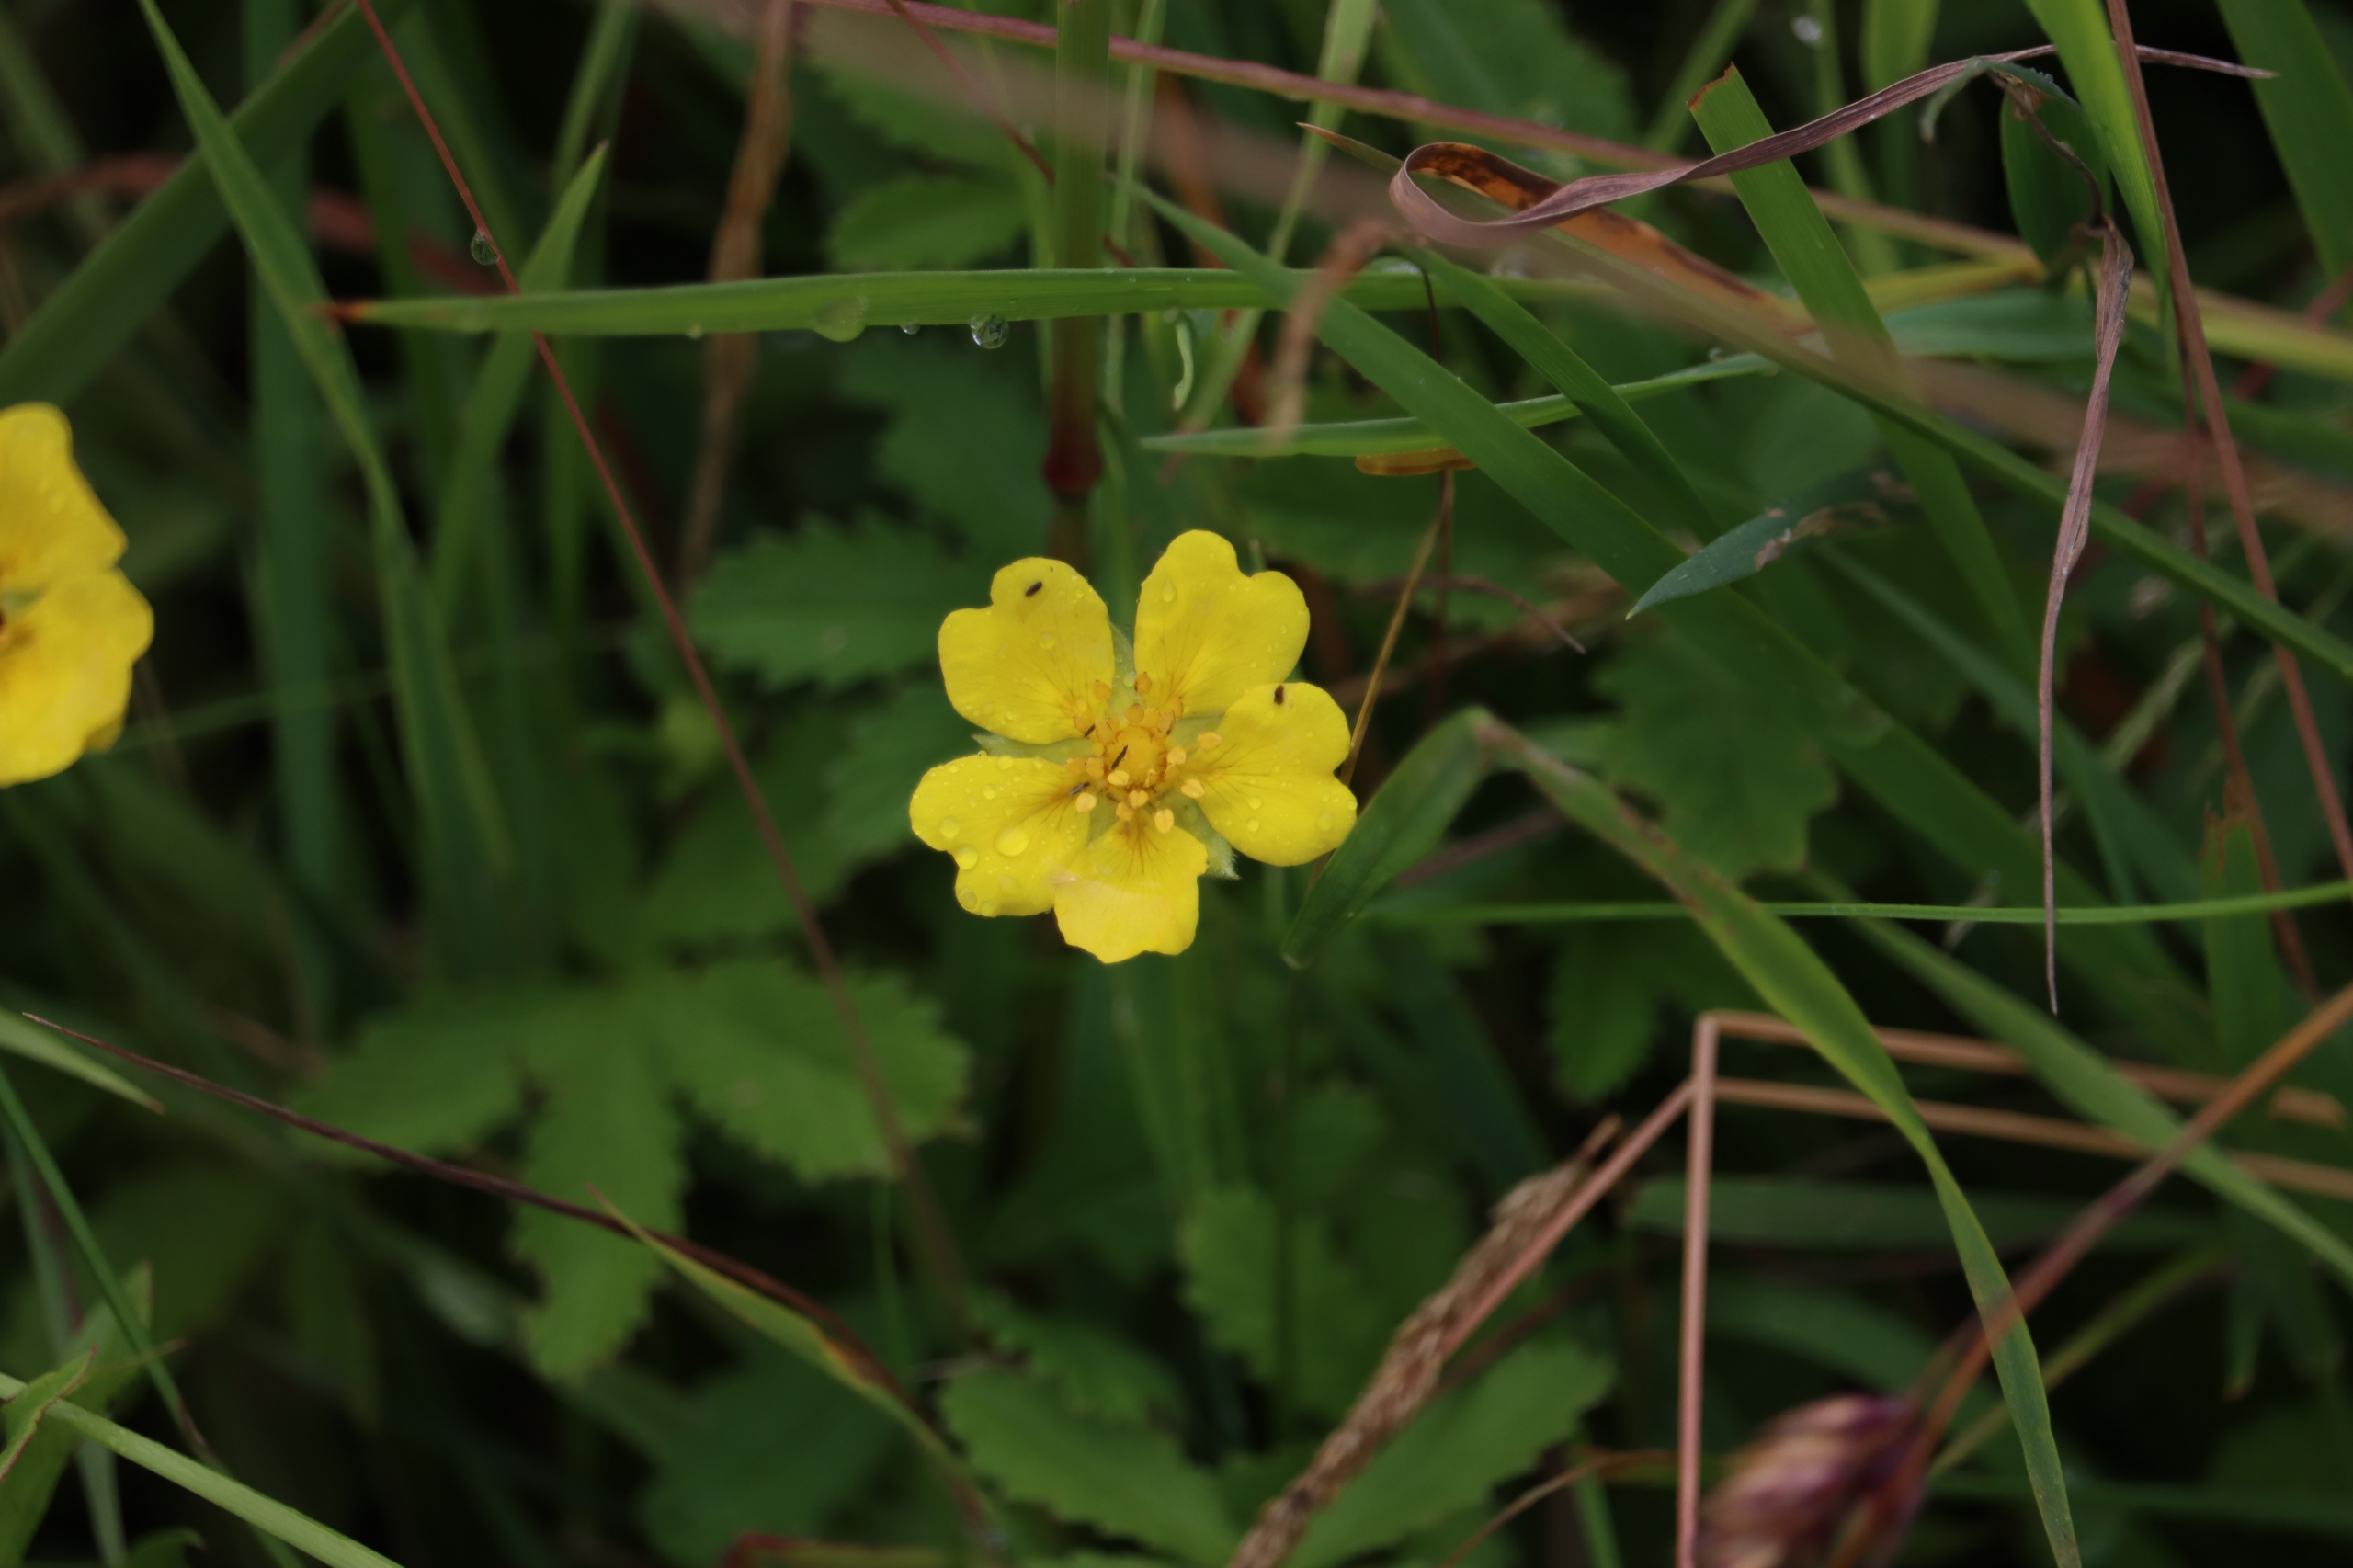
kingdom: Plantae
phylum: Tracheophyta
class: Magnoliopsida
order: Rosales
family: Rosaceae
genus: Potentilla
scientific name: Potentilla reptans
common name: Krybende potentil
